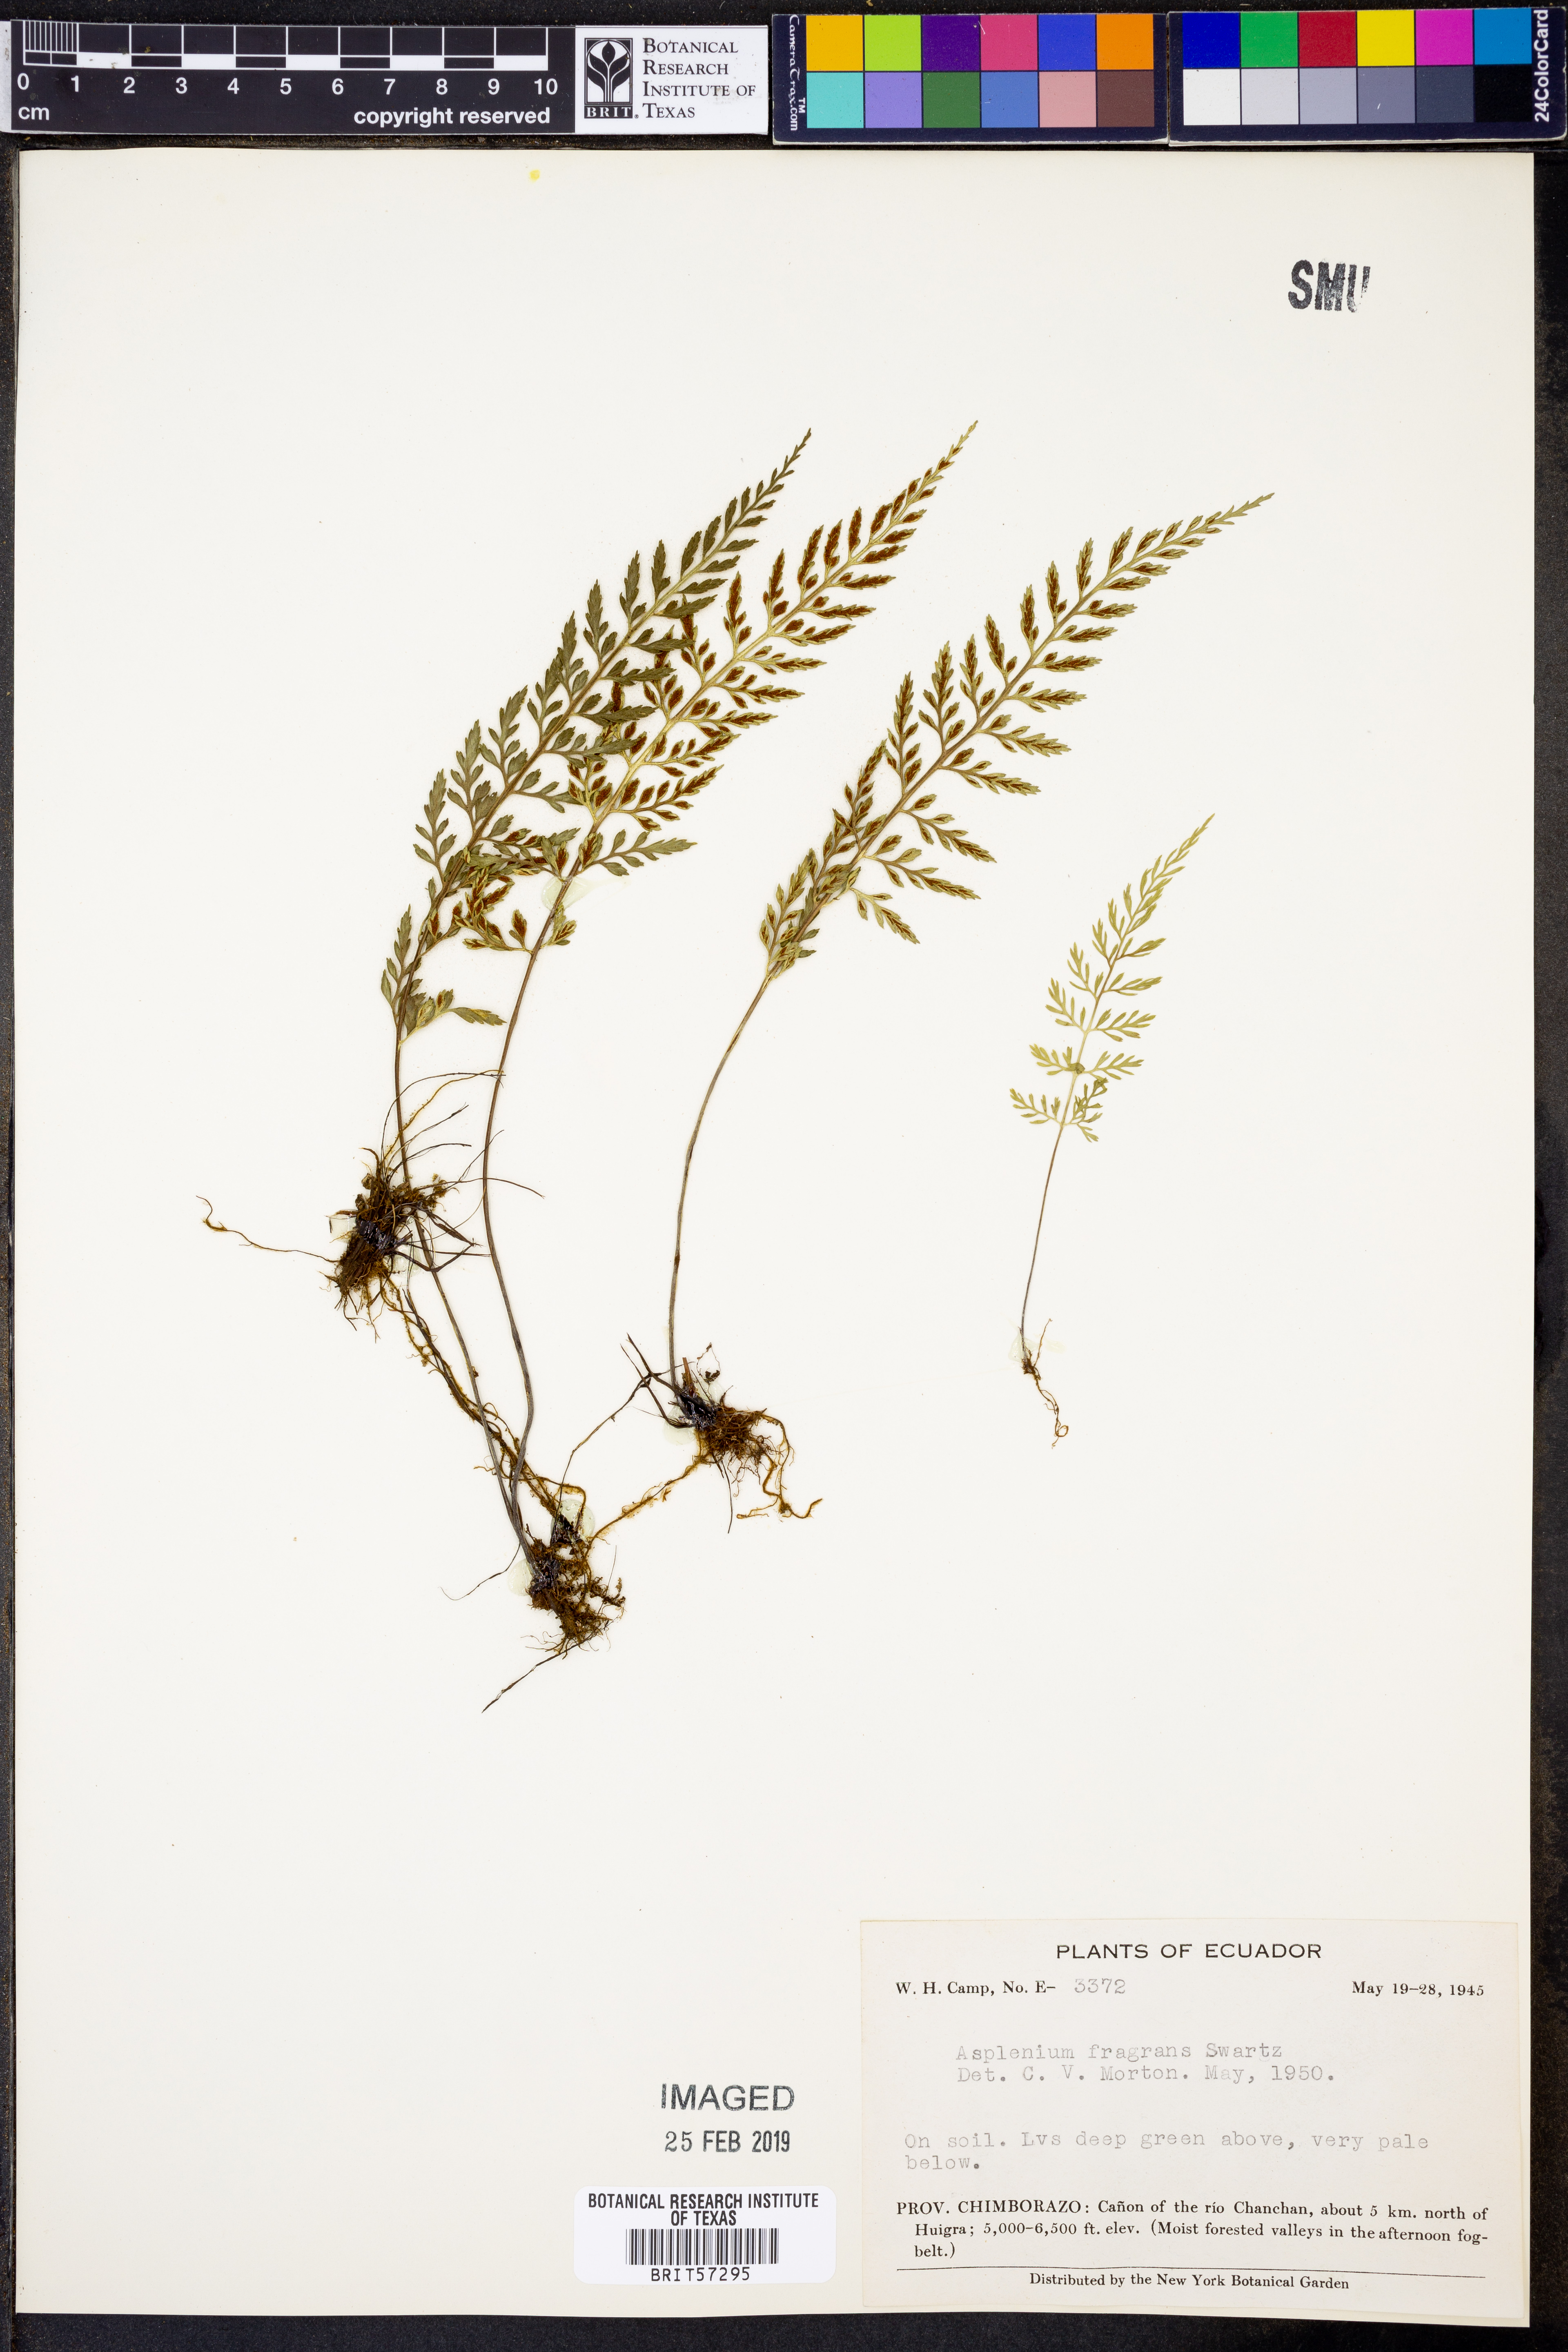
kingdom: Plantae
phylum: Tracheophyta
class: Polypodiopsida
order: Polypodiales
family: Aspleniaceae
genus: Asplenium
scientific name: Asplenium hastatum
